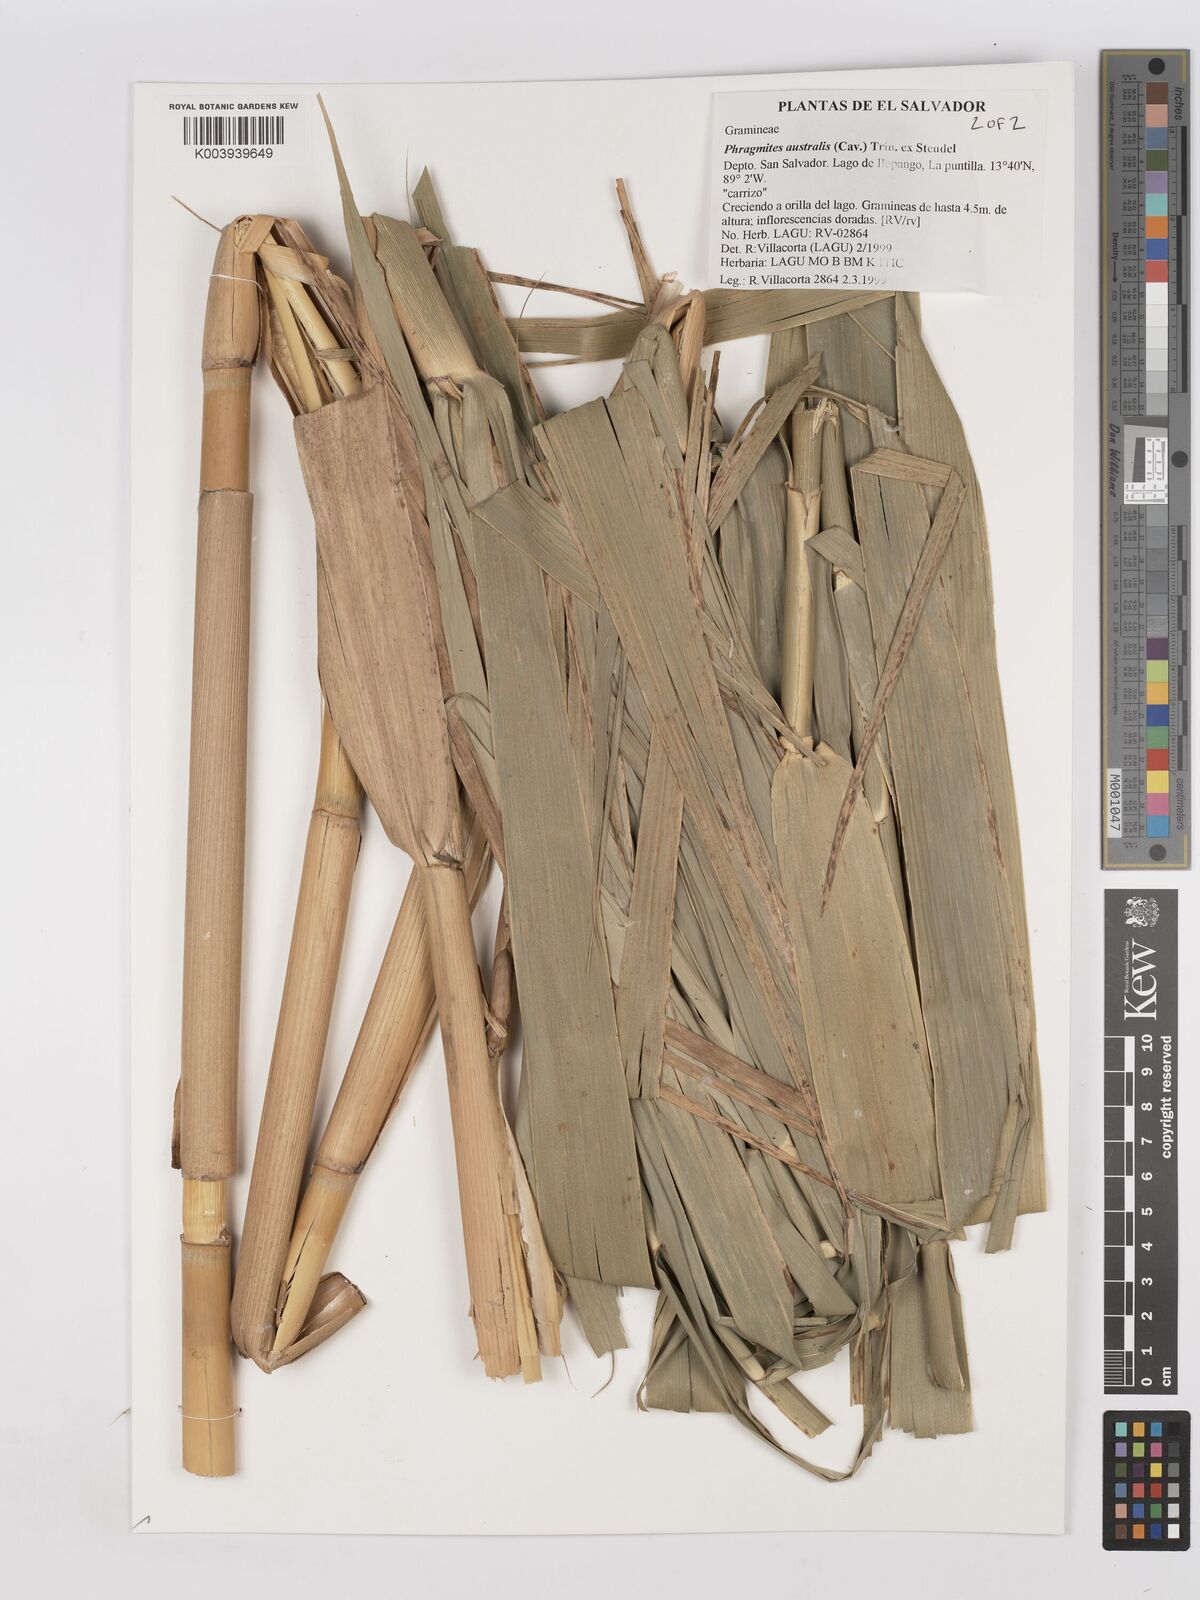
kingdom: Plantae
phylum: Tracheophyta
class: Liliopsida
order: Poales
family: Poaceae
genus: Phragmites
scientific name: Phragmites australis
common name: Common reed
